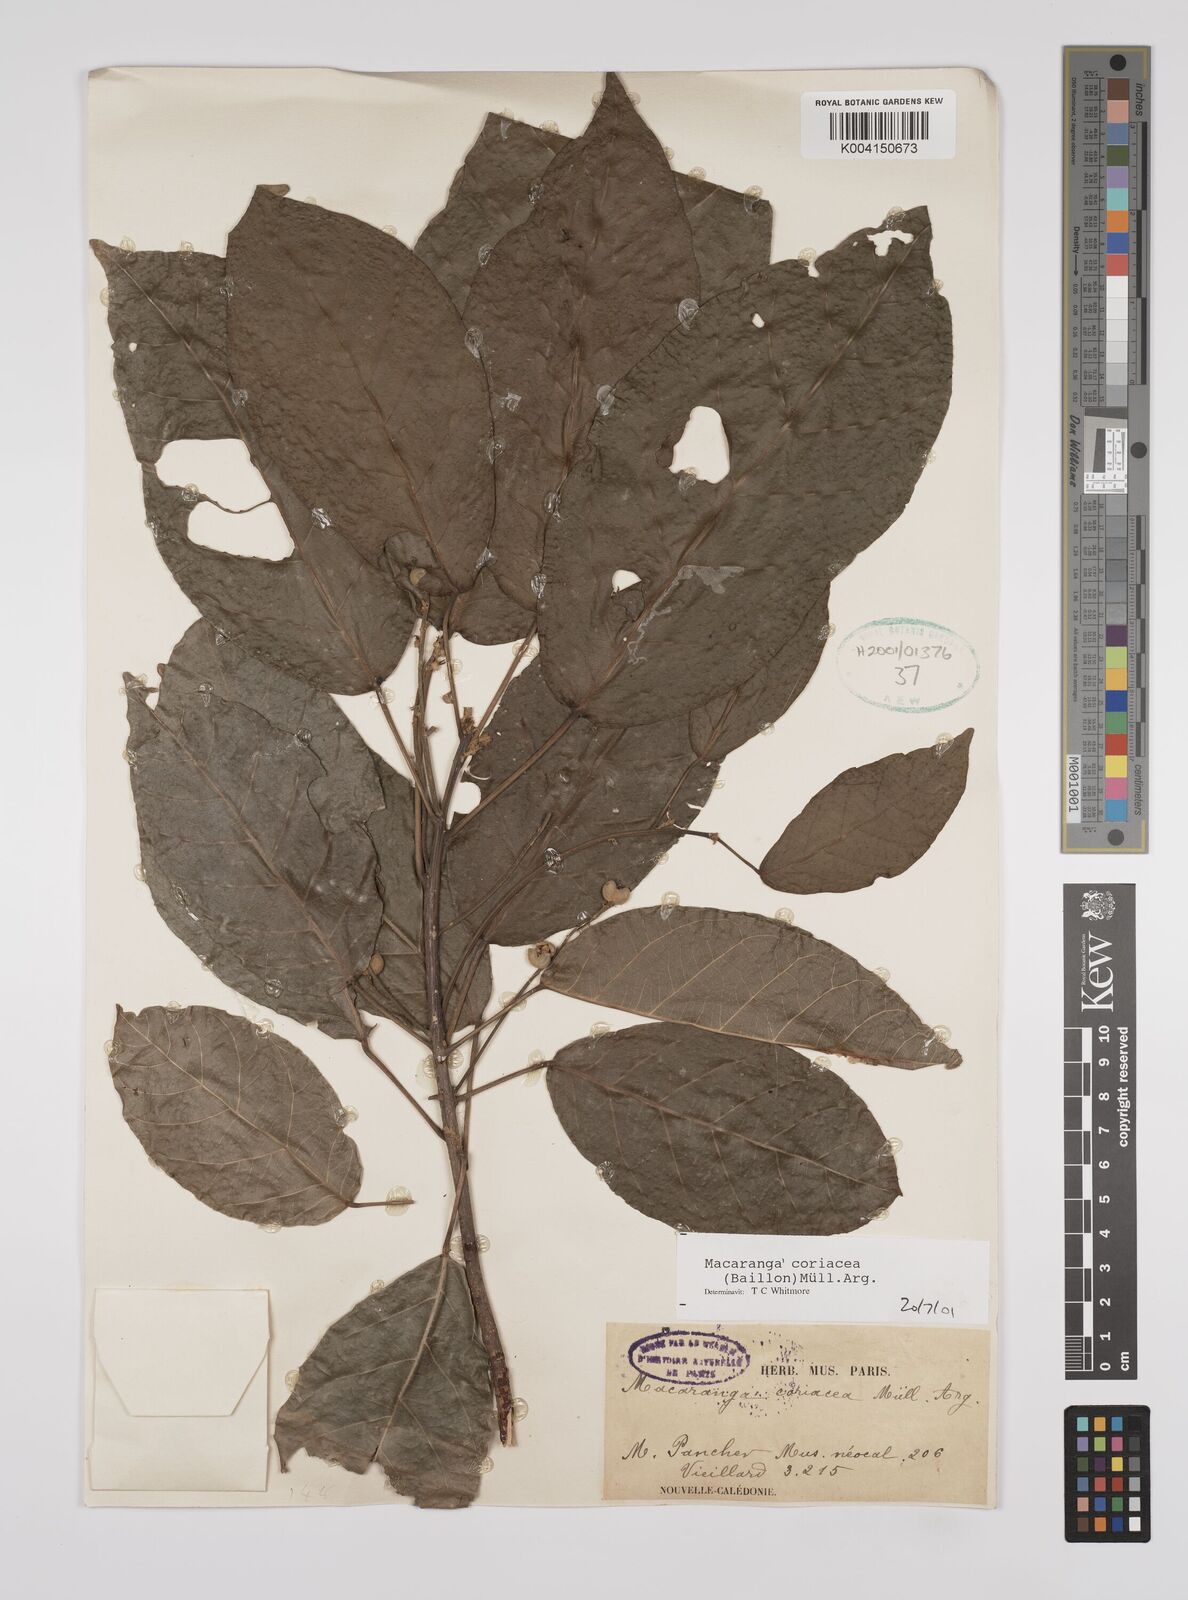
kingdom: Plantae
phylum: Tracheophyta
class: Magnoliopsida
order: Malpighiales
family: Euphorbiaceae
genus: Macaranga
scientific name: Macaranga coriacea
